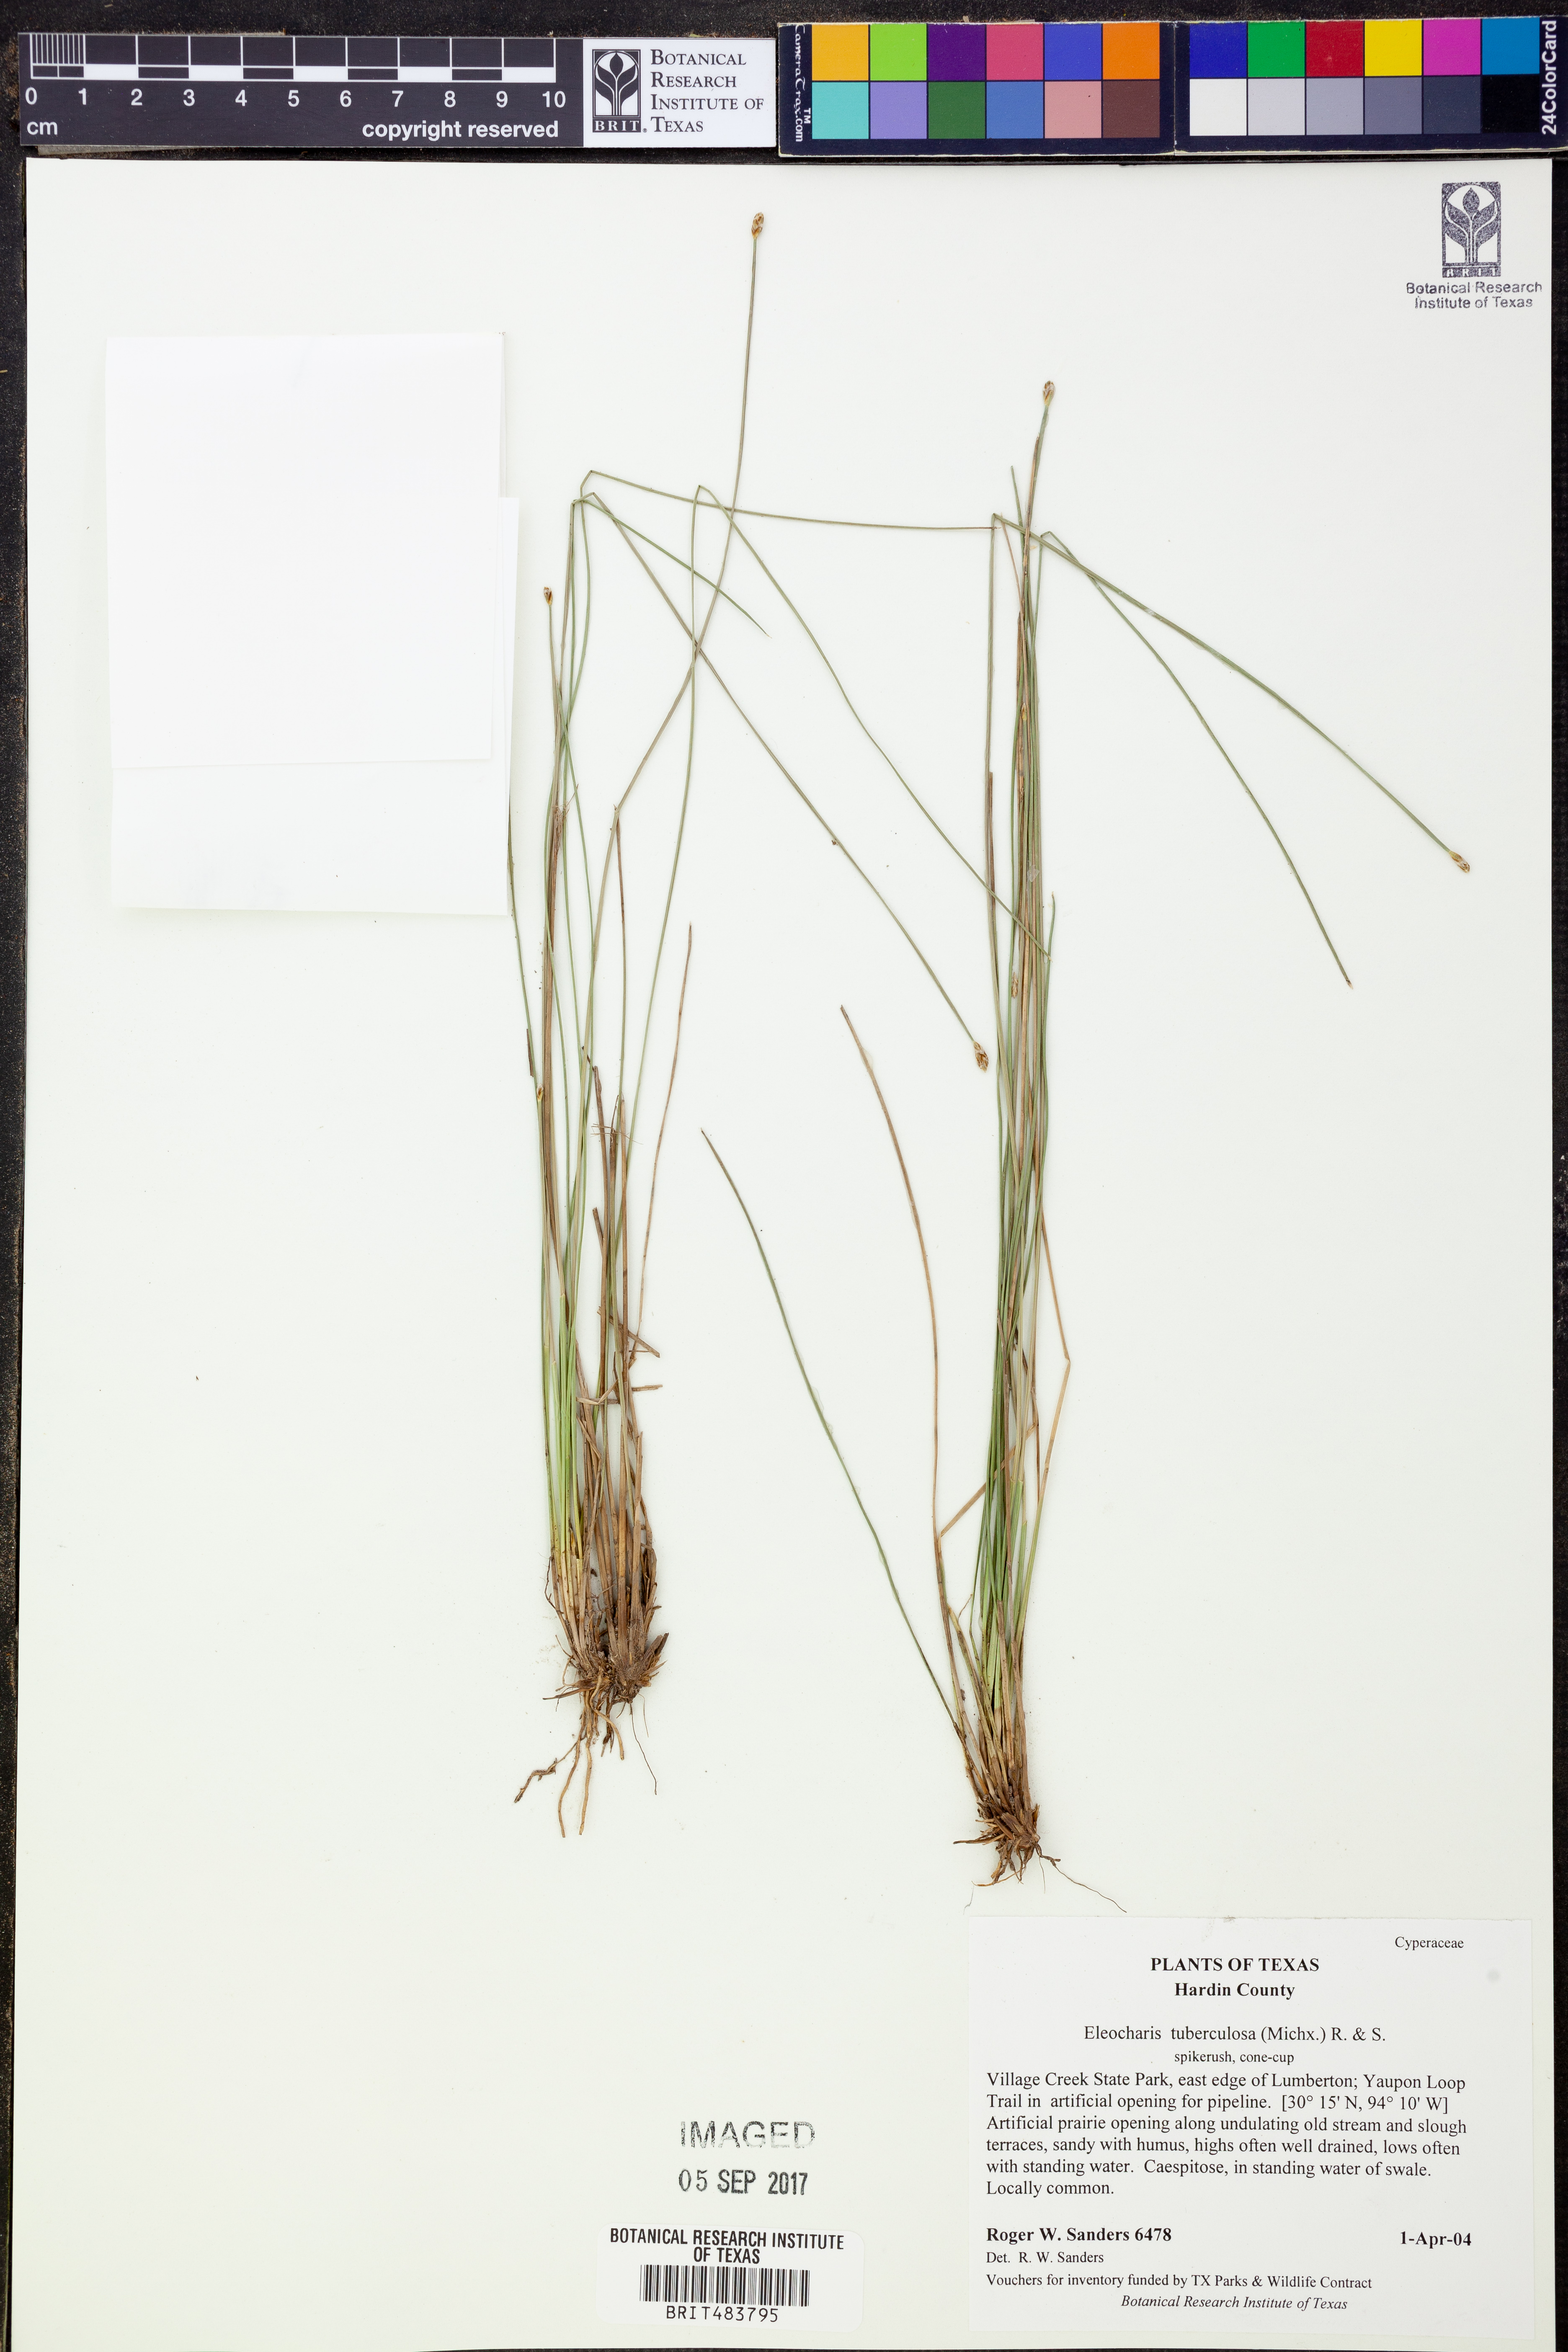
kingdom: Plantae
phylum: Tracheophyta
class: Liliopsida
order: Poales
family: Cyperaceae
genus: Eleocharis
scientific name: Eleocharis tuberculosa
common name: Cone-cup spikerush
